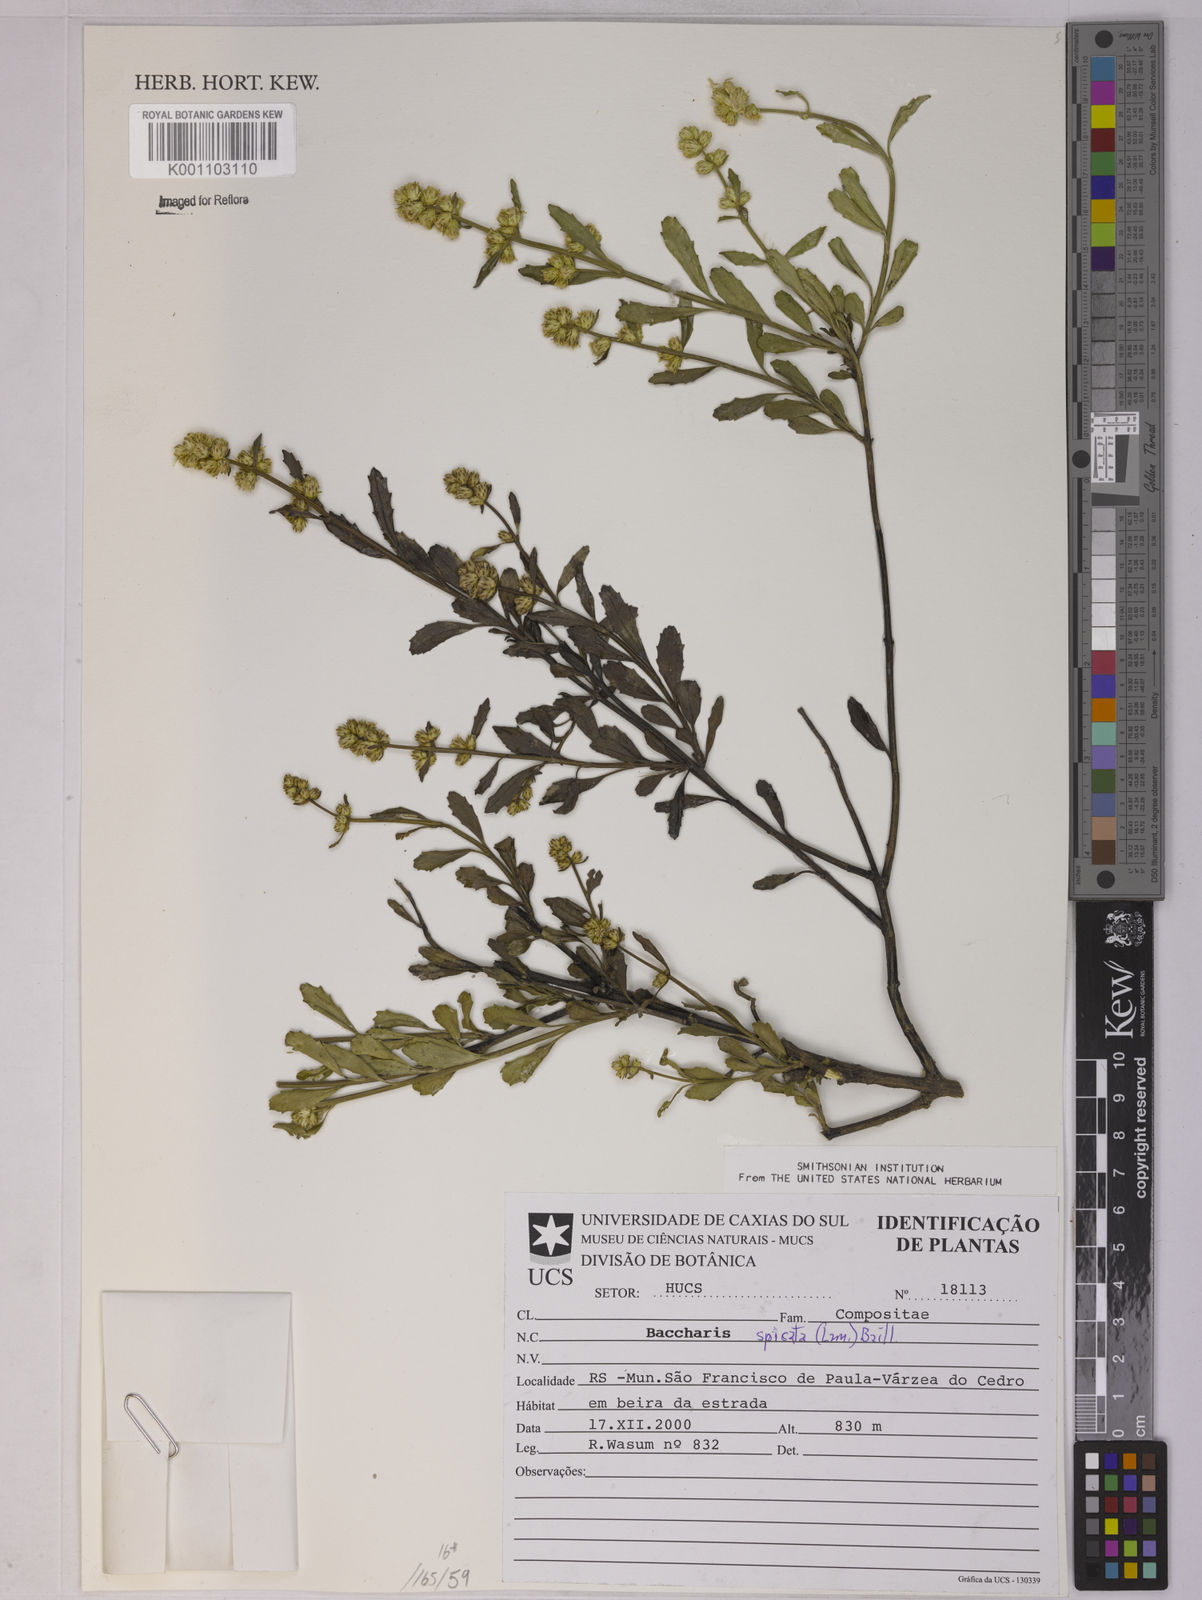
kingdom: Plantae
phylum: Tracheophyta
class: Magnoliopsida
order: Asterales
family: Asteraceae
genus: Baccharis
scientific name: Baccharis spicata
